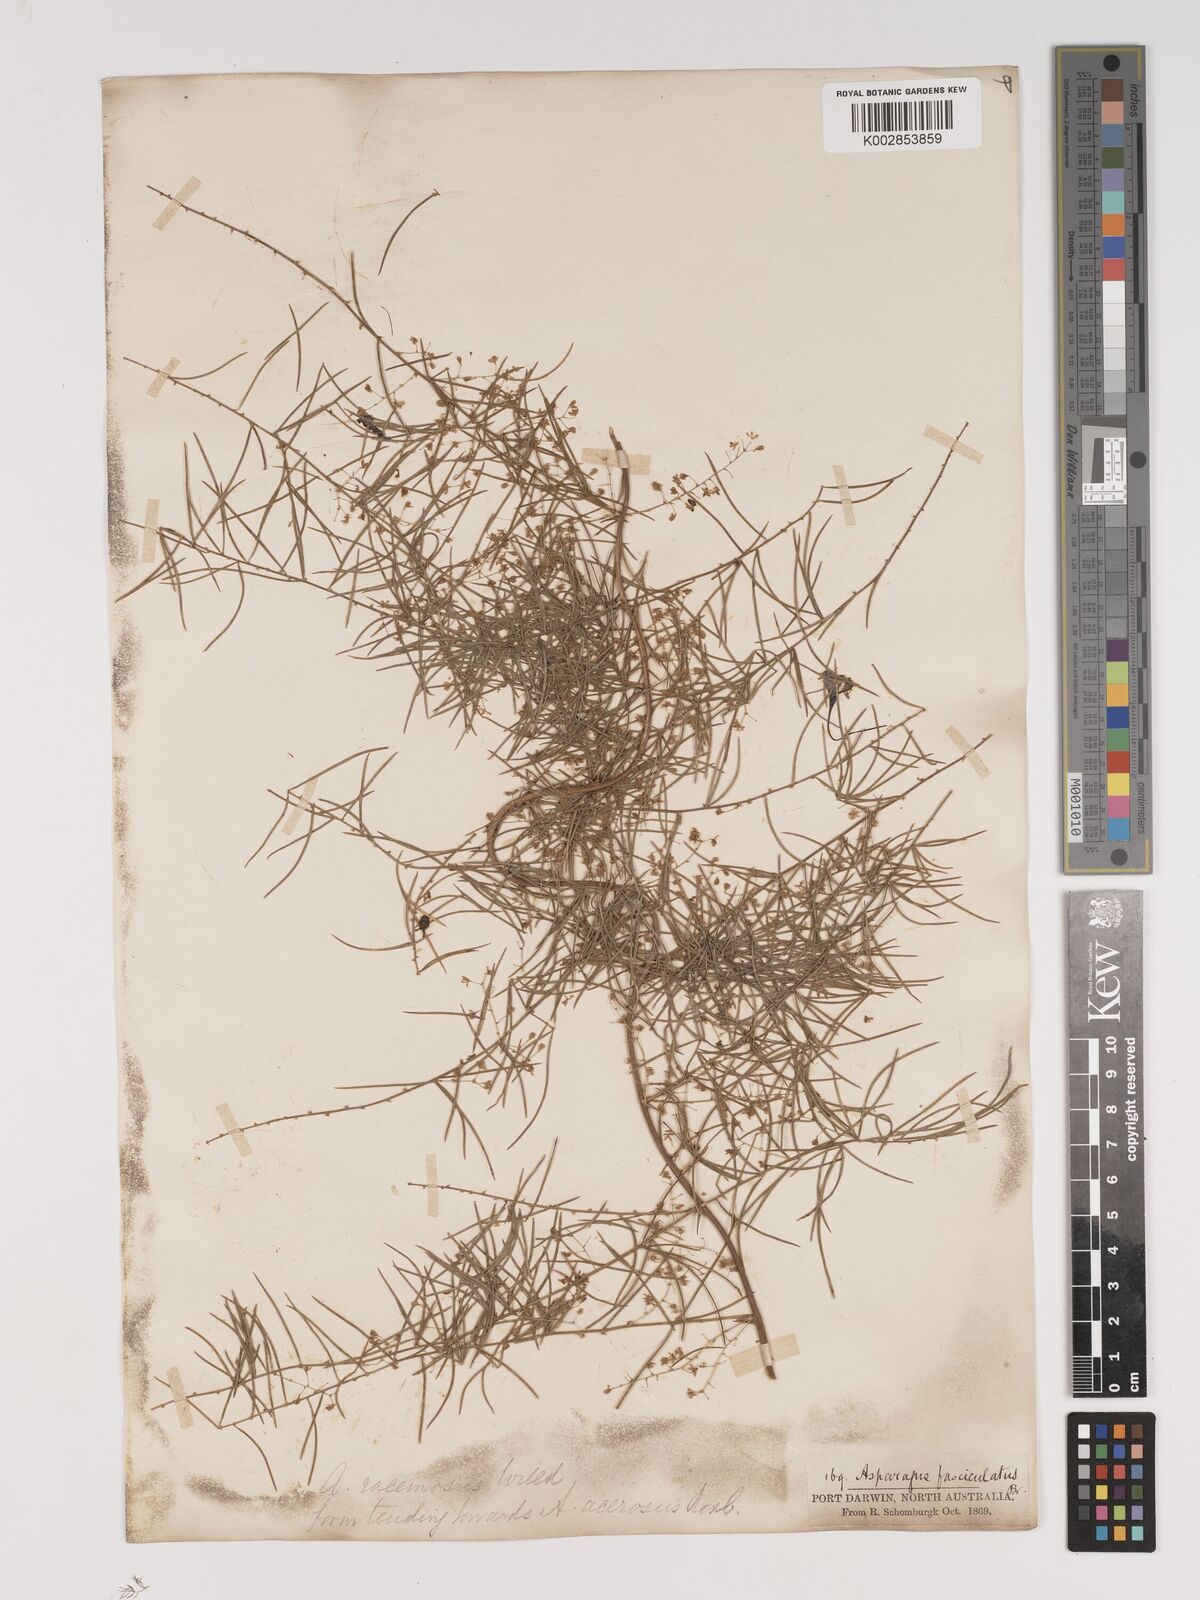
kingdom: Plantae
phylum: Tracheophyta
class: Liliopsida
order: Asparagales
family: Asparagaceae
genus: Asparagus
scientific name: Asparagus racemosus
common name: Asparagus-fern
